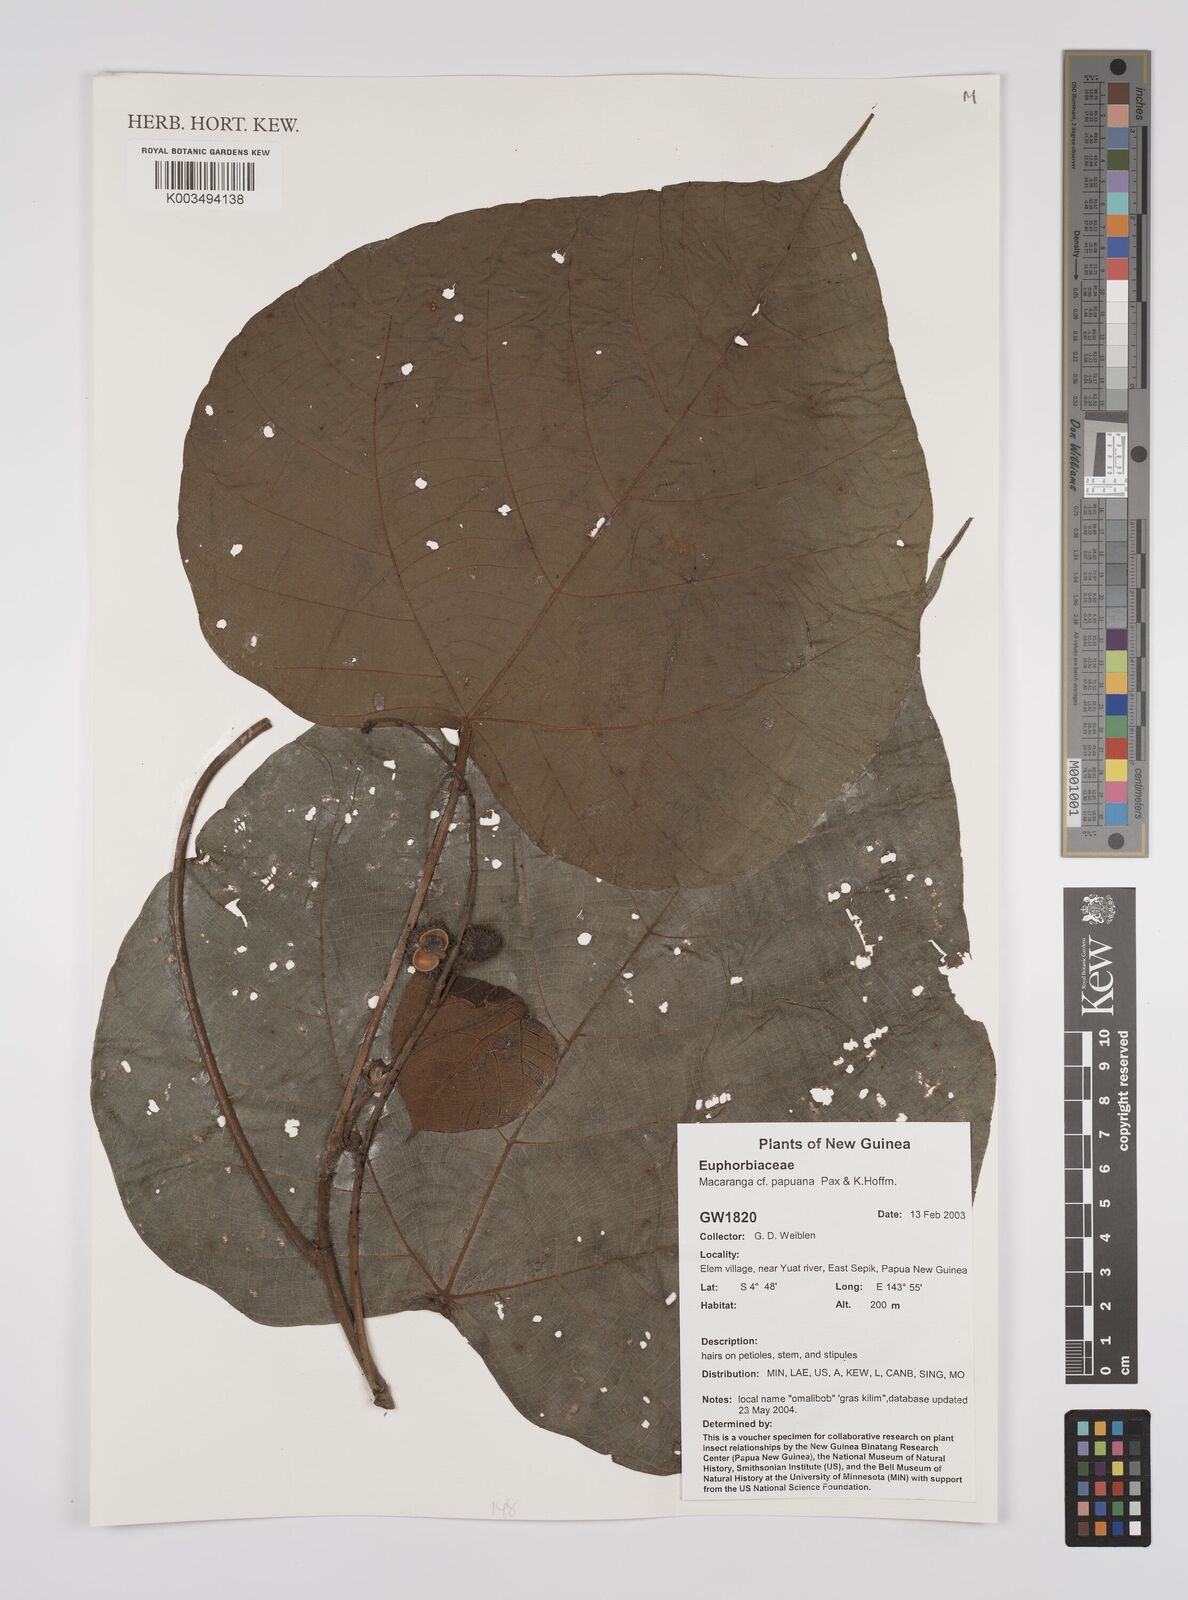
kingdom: Plantae
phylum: Tracheophyta
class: Magnoliopsida
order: Malpighiales
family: Euphorbiaceae
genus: Macaranga
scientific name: Macaranga aleuritoides
